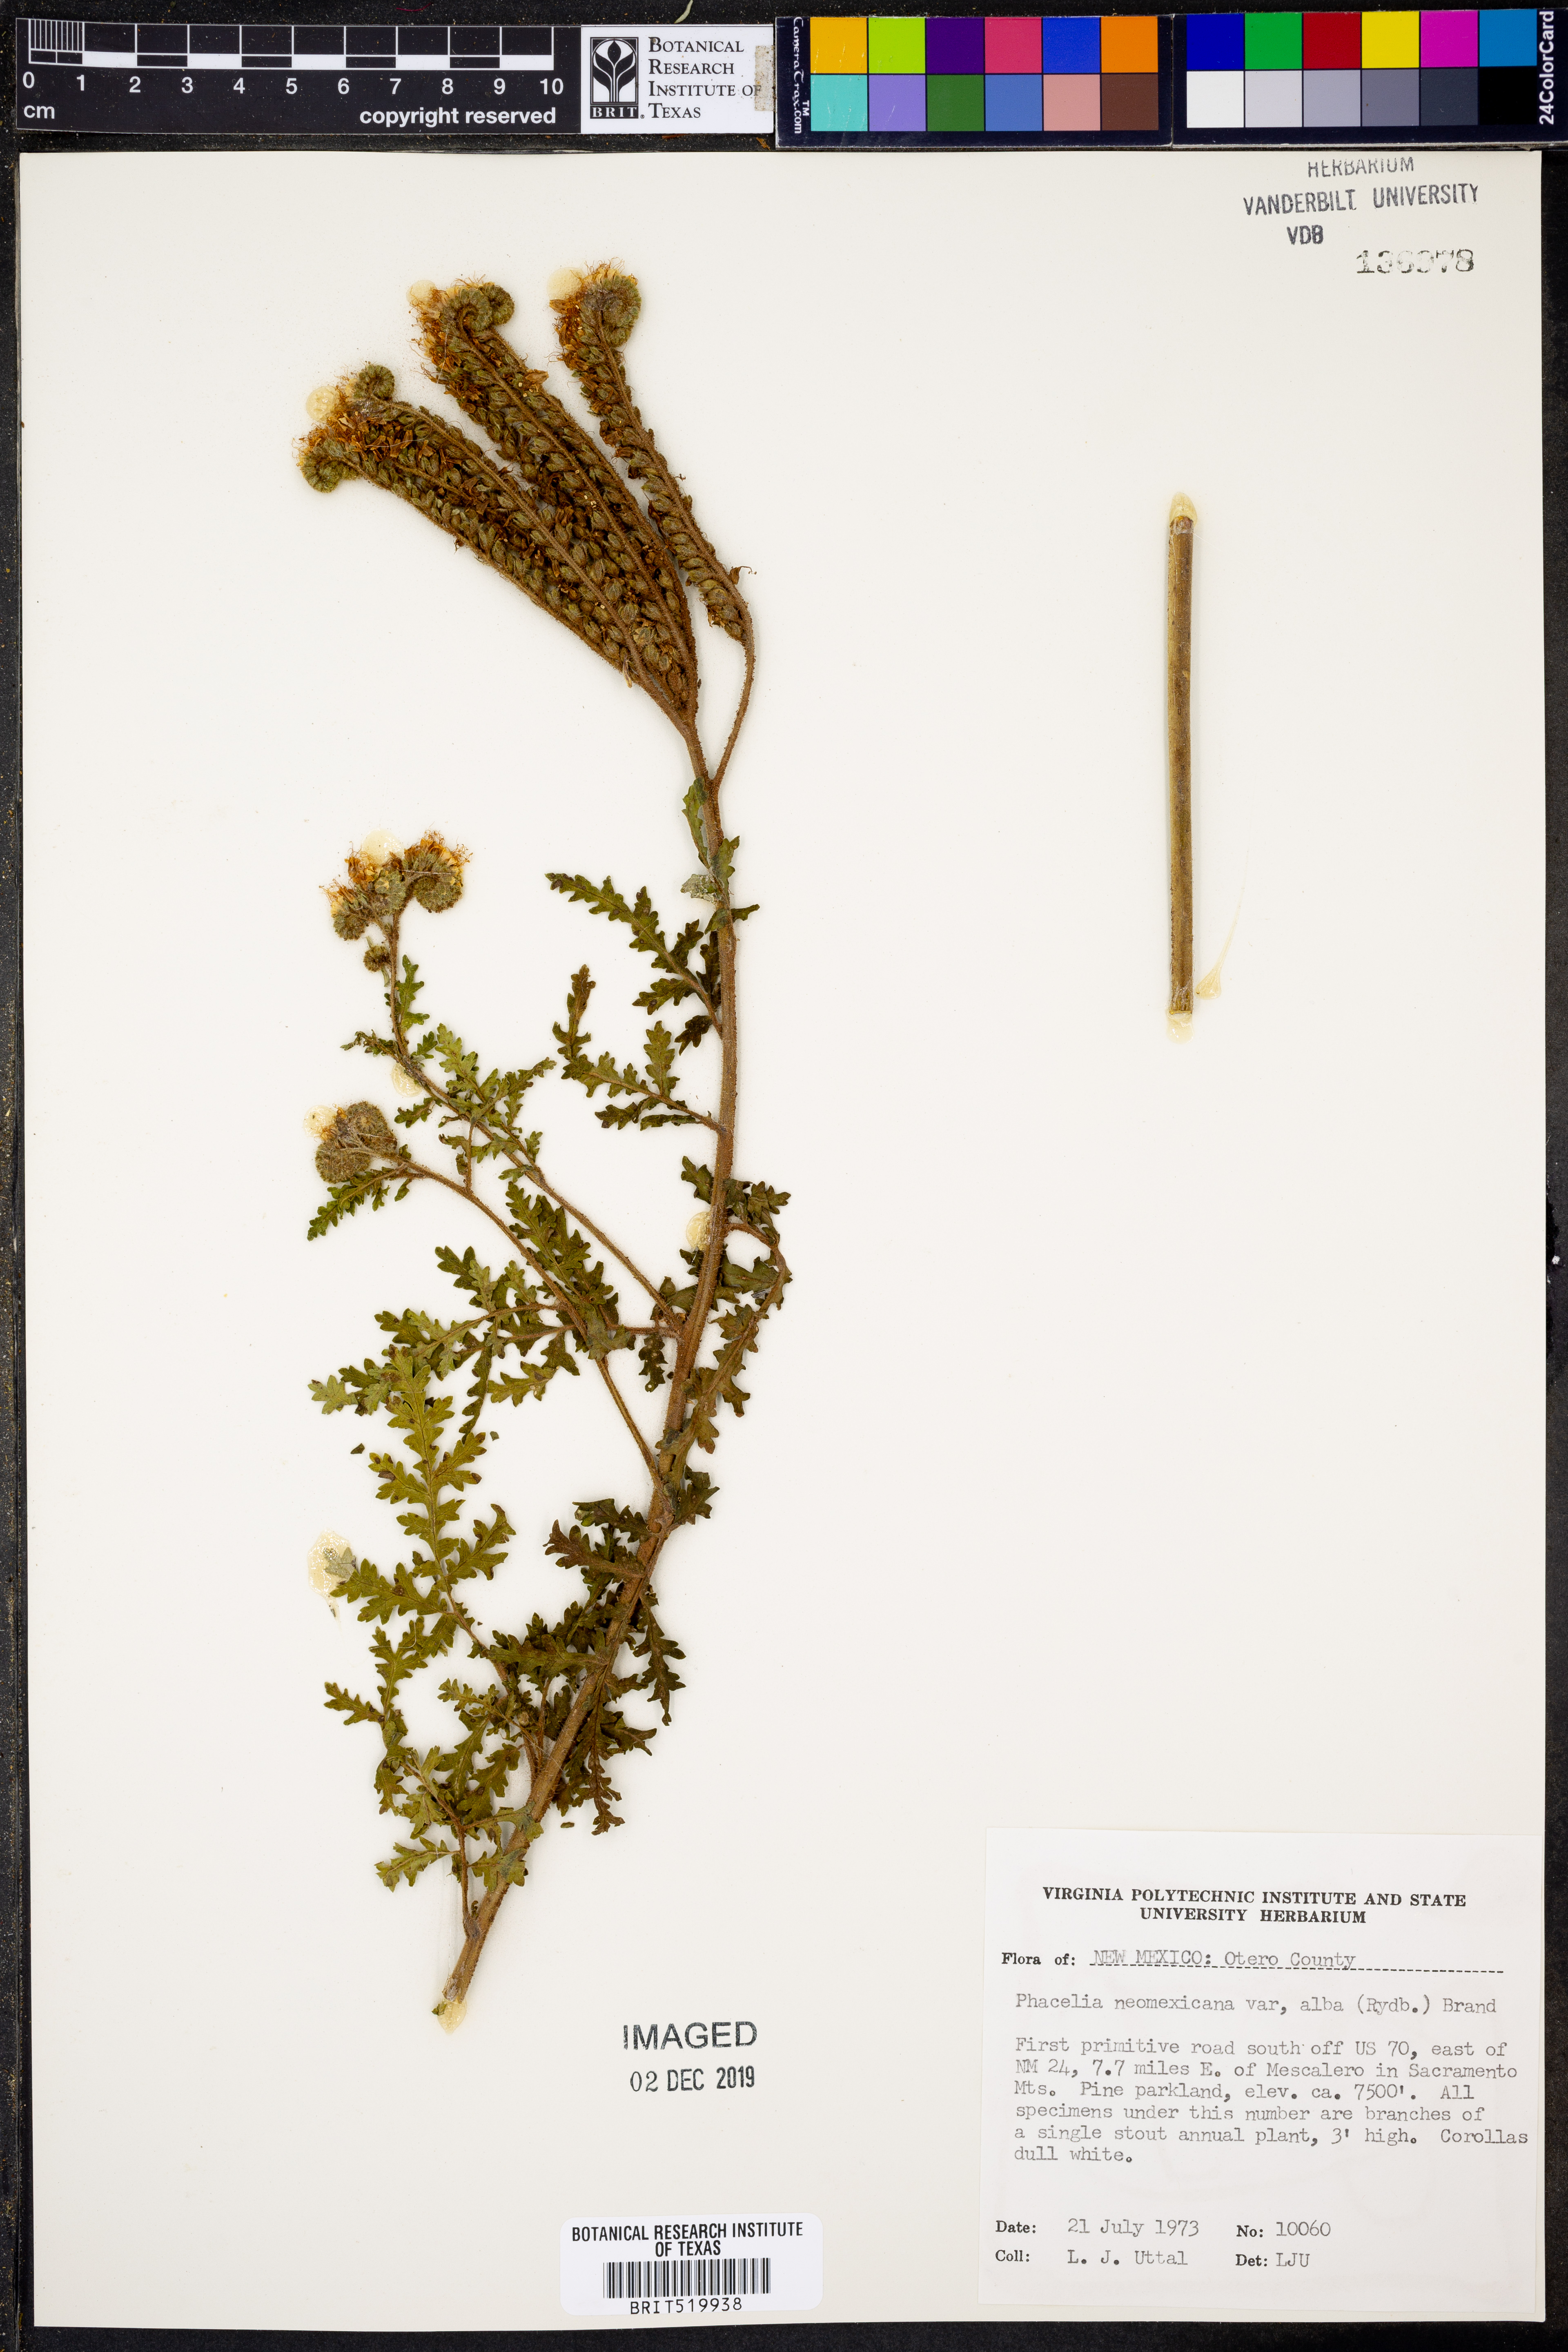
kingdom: Plantae
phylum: Tracheophyta
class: Magnoliopsida
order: Boraginales
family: Hydrophyllaceae
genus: Phacelia
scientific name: Phacelia alba
